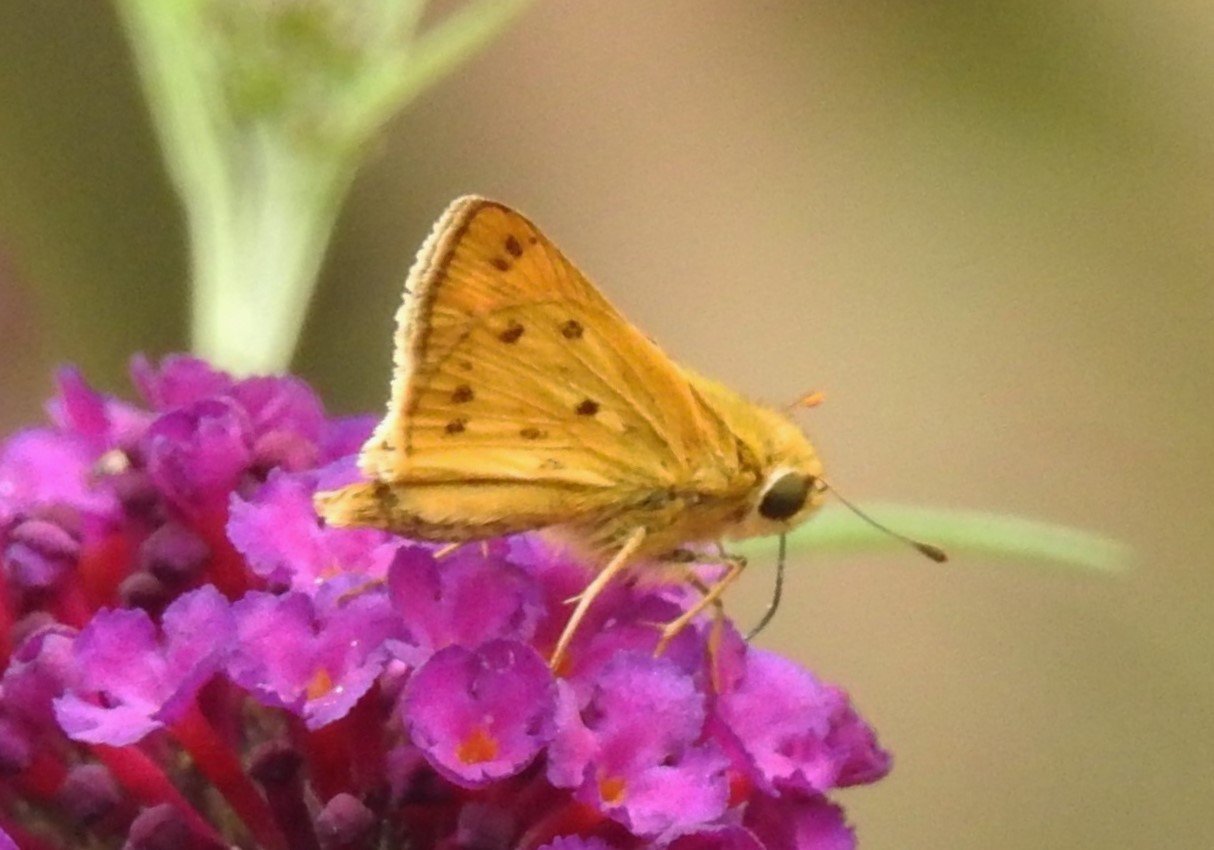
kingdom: Animalia
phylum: Arthropoda
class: Insecta
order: Lepidoptera
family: Hesperiidae
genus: Hylephila
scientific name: Hylephila phyleus
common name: Fiery Skipper
